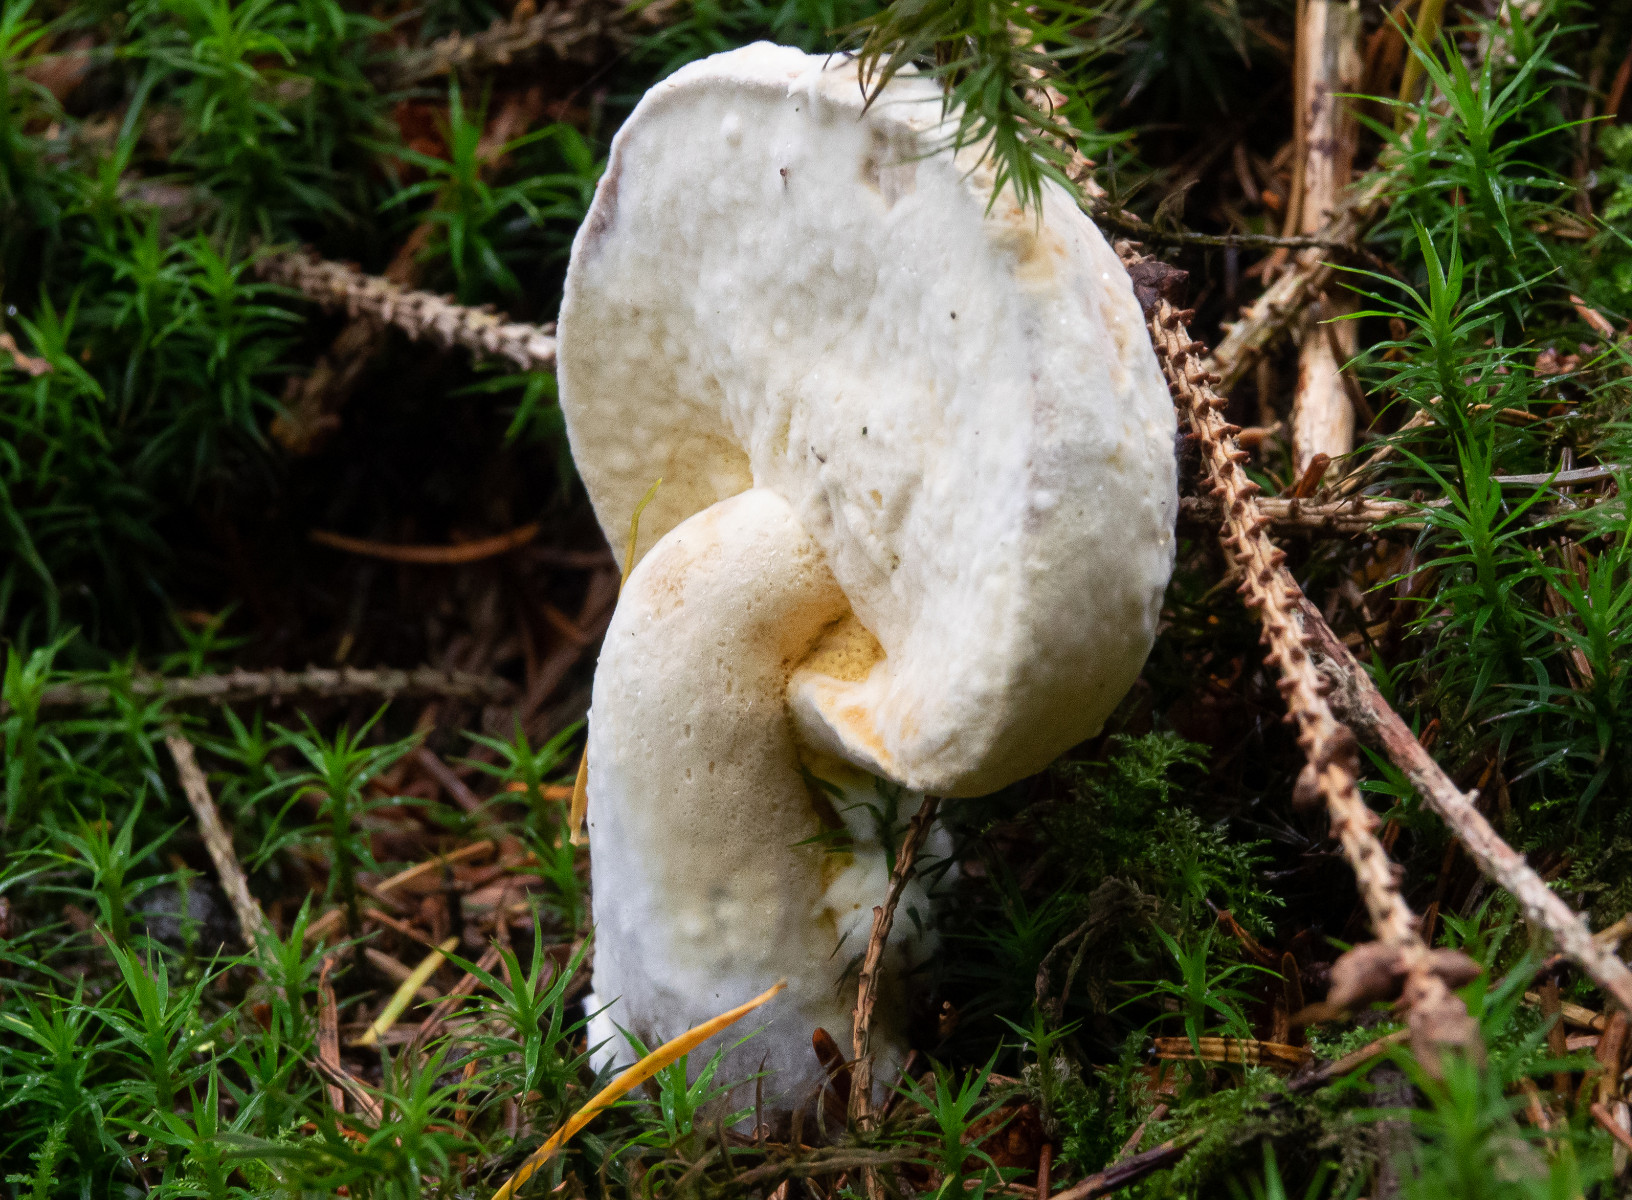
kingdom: Fungi
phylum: Ascomycota
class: Sordariomycetes
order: Hypocreales
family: Hypocreaceae
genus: Hypomyces
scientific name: Hypomyces
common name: snylteskorpe
